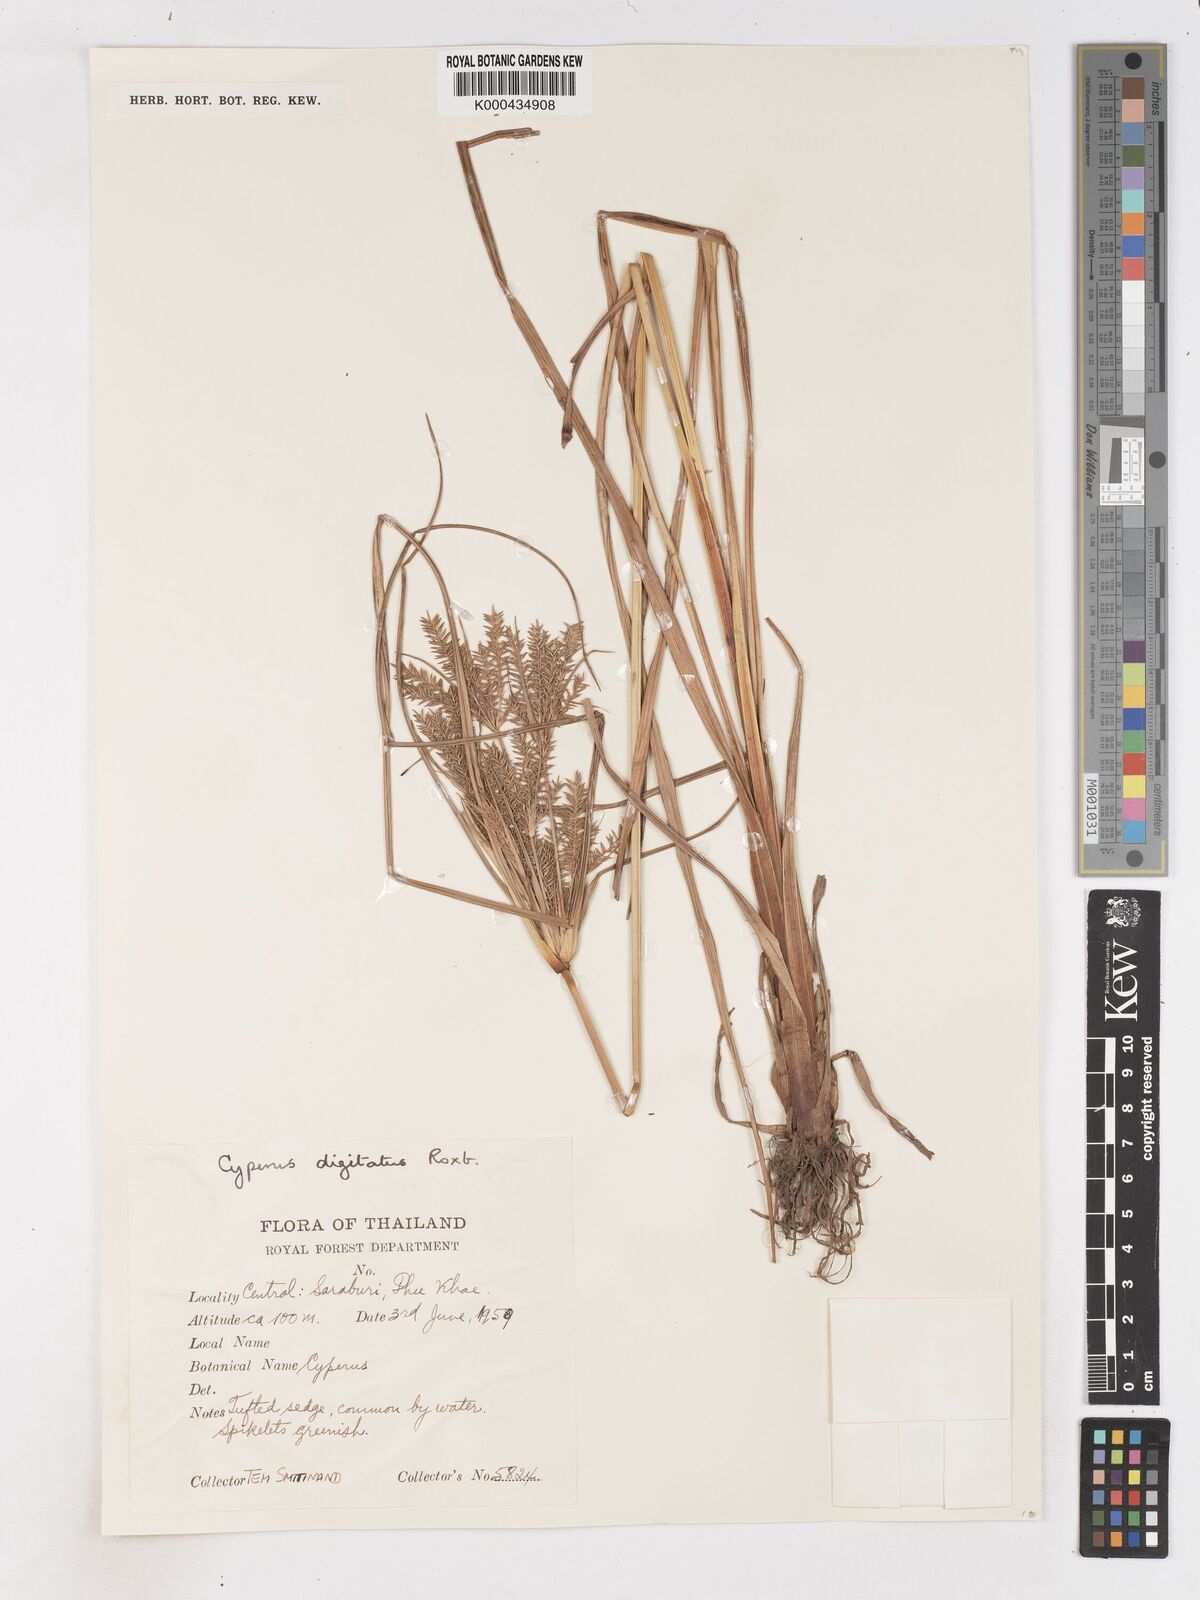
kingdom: Plantae
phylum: Tracheophyta
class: Liliopsida
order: Poales
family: Cyperaceae
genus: Cyperus
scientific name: Cyperus digitatus
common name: Finger flatsedge
